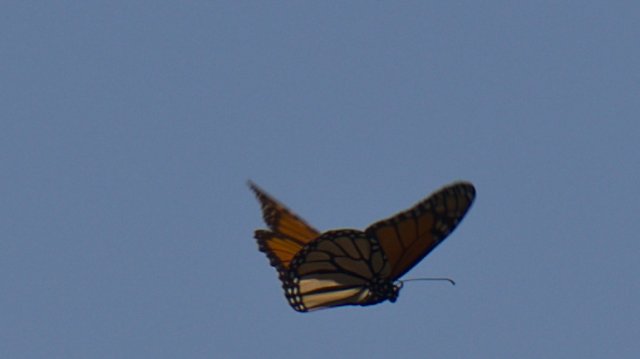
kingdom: Animalia
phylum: Arthropoda
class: Insecta
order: Lepidoptera
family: Nymphalidae
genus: Danaus
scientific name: Danaus plexippus
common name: Monarch
